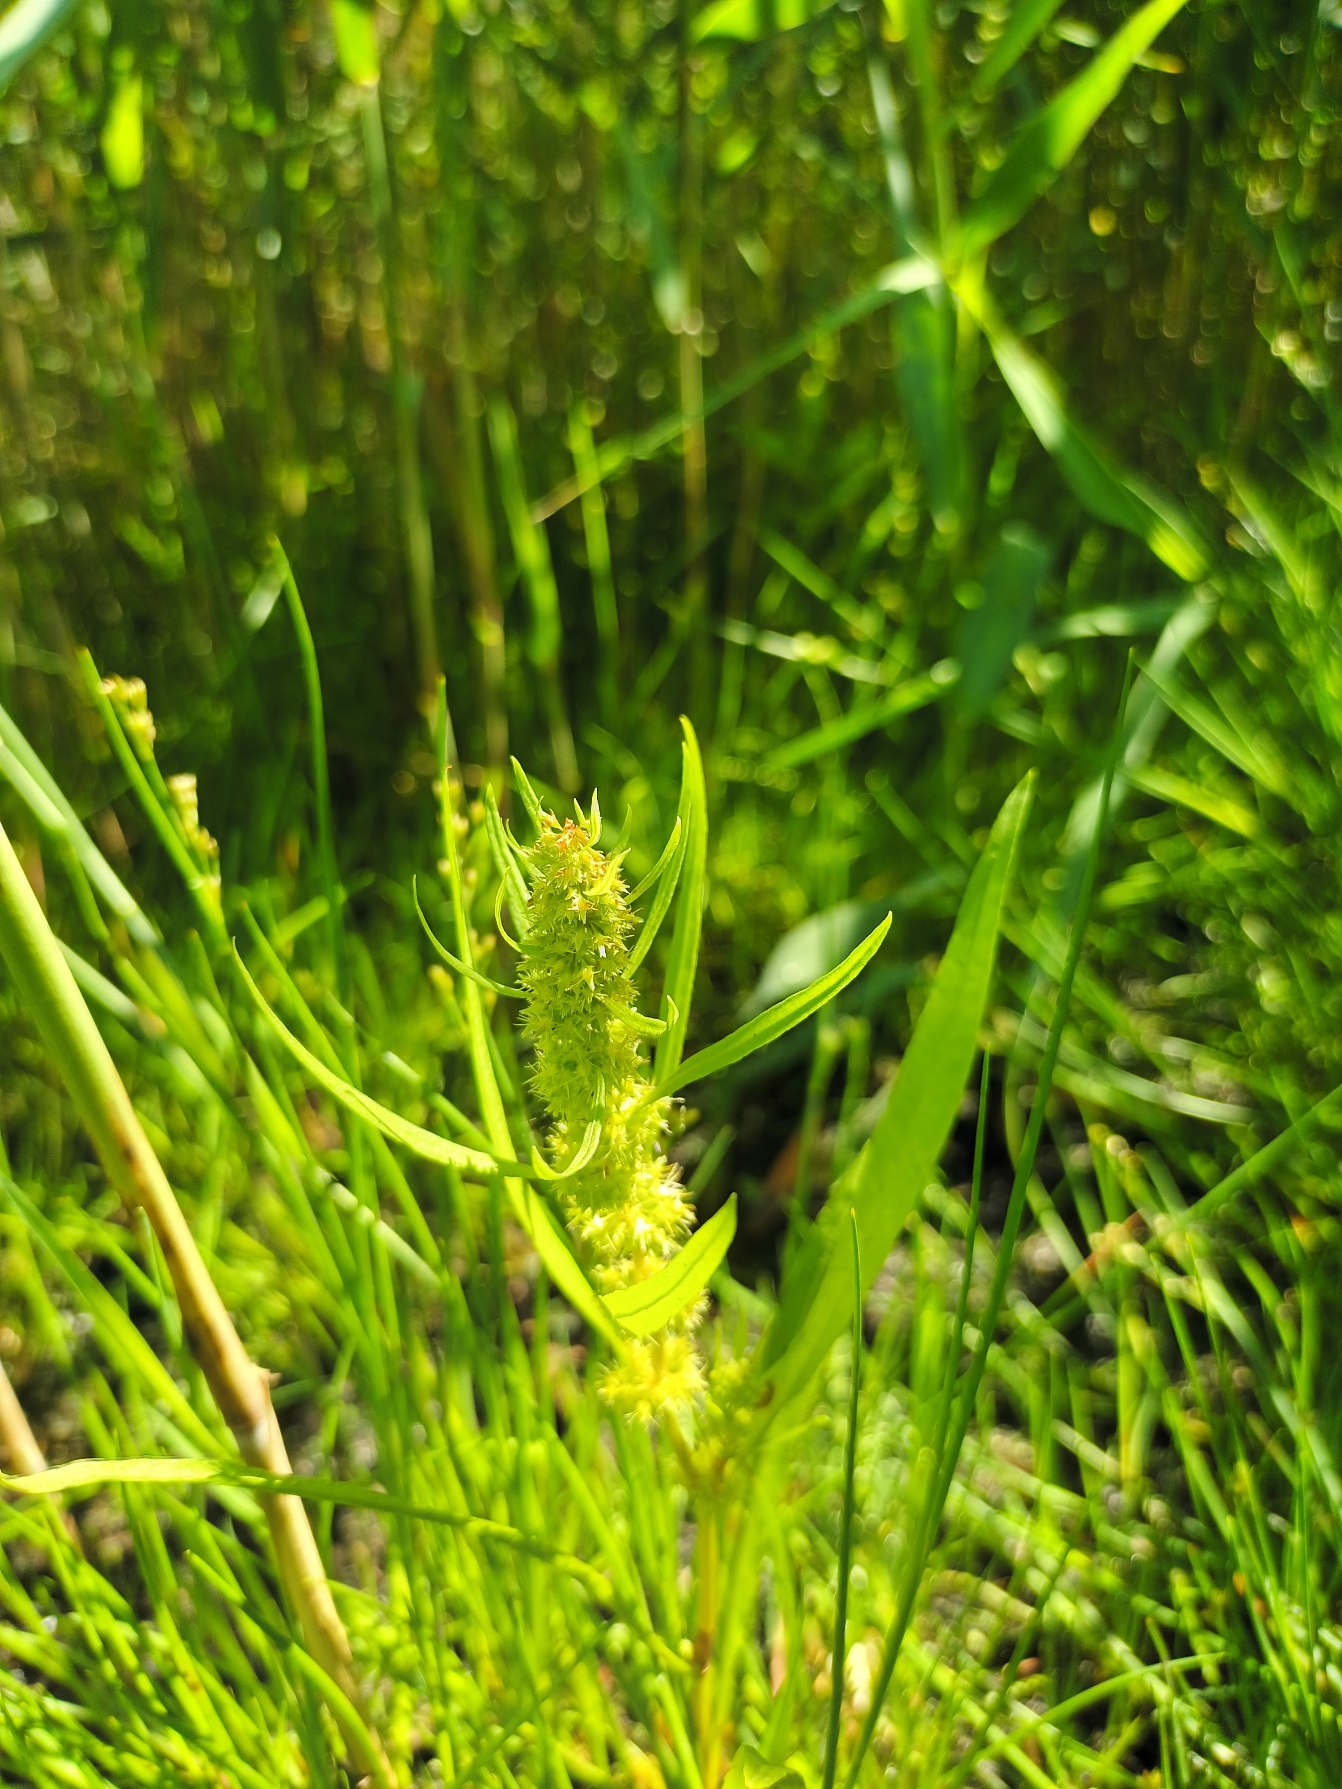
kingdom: Plantae
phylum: Tracheophyta
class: Magnoliopsida
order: Caryophyllales
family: Polygonaceae
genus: Rumex
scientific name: Rumex maritimus
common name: Strand-skræppe
